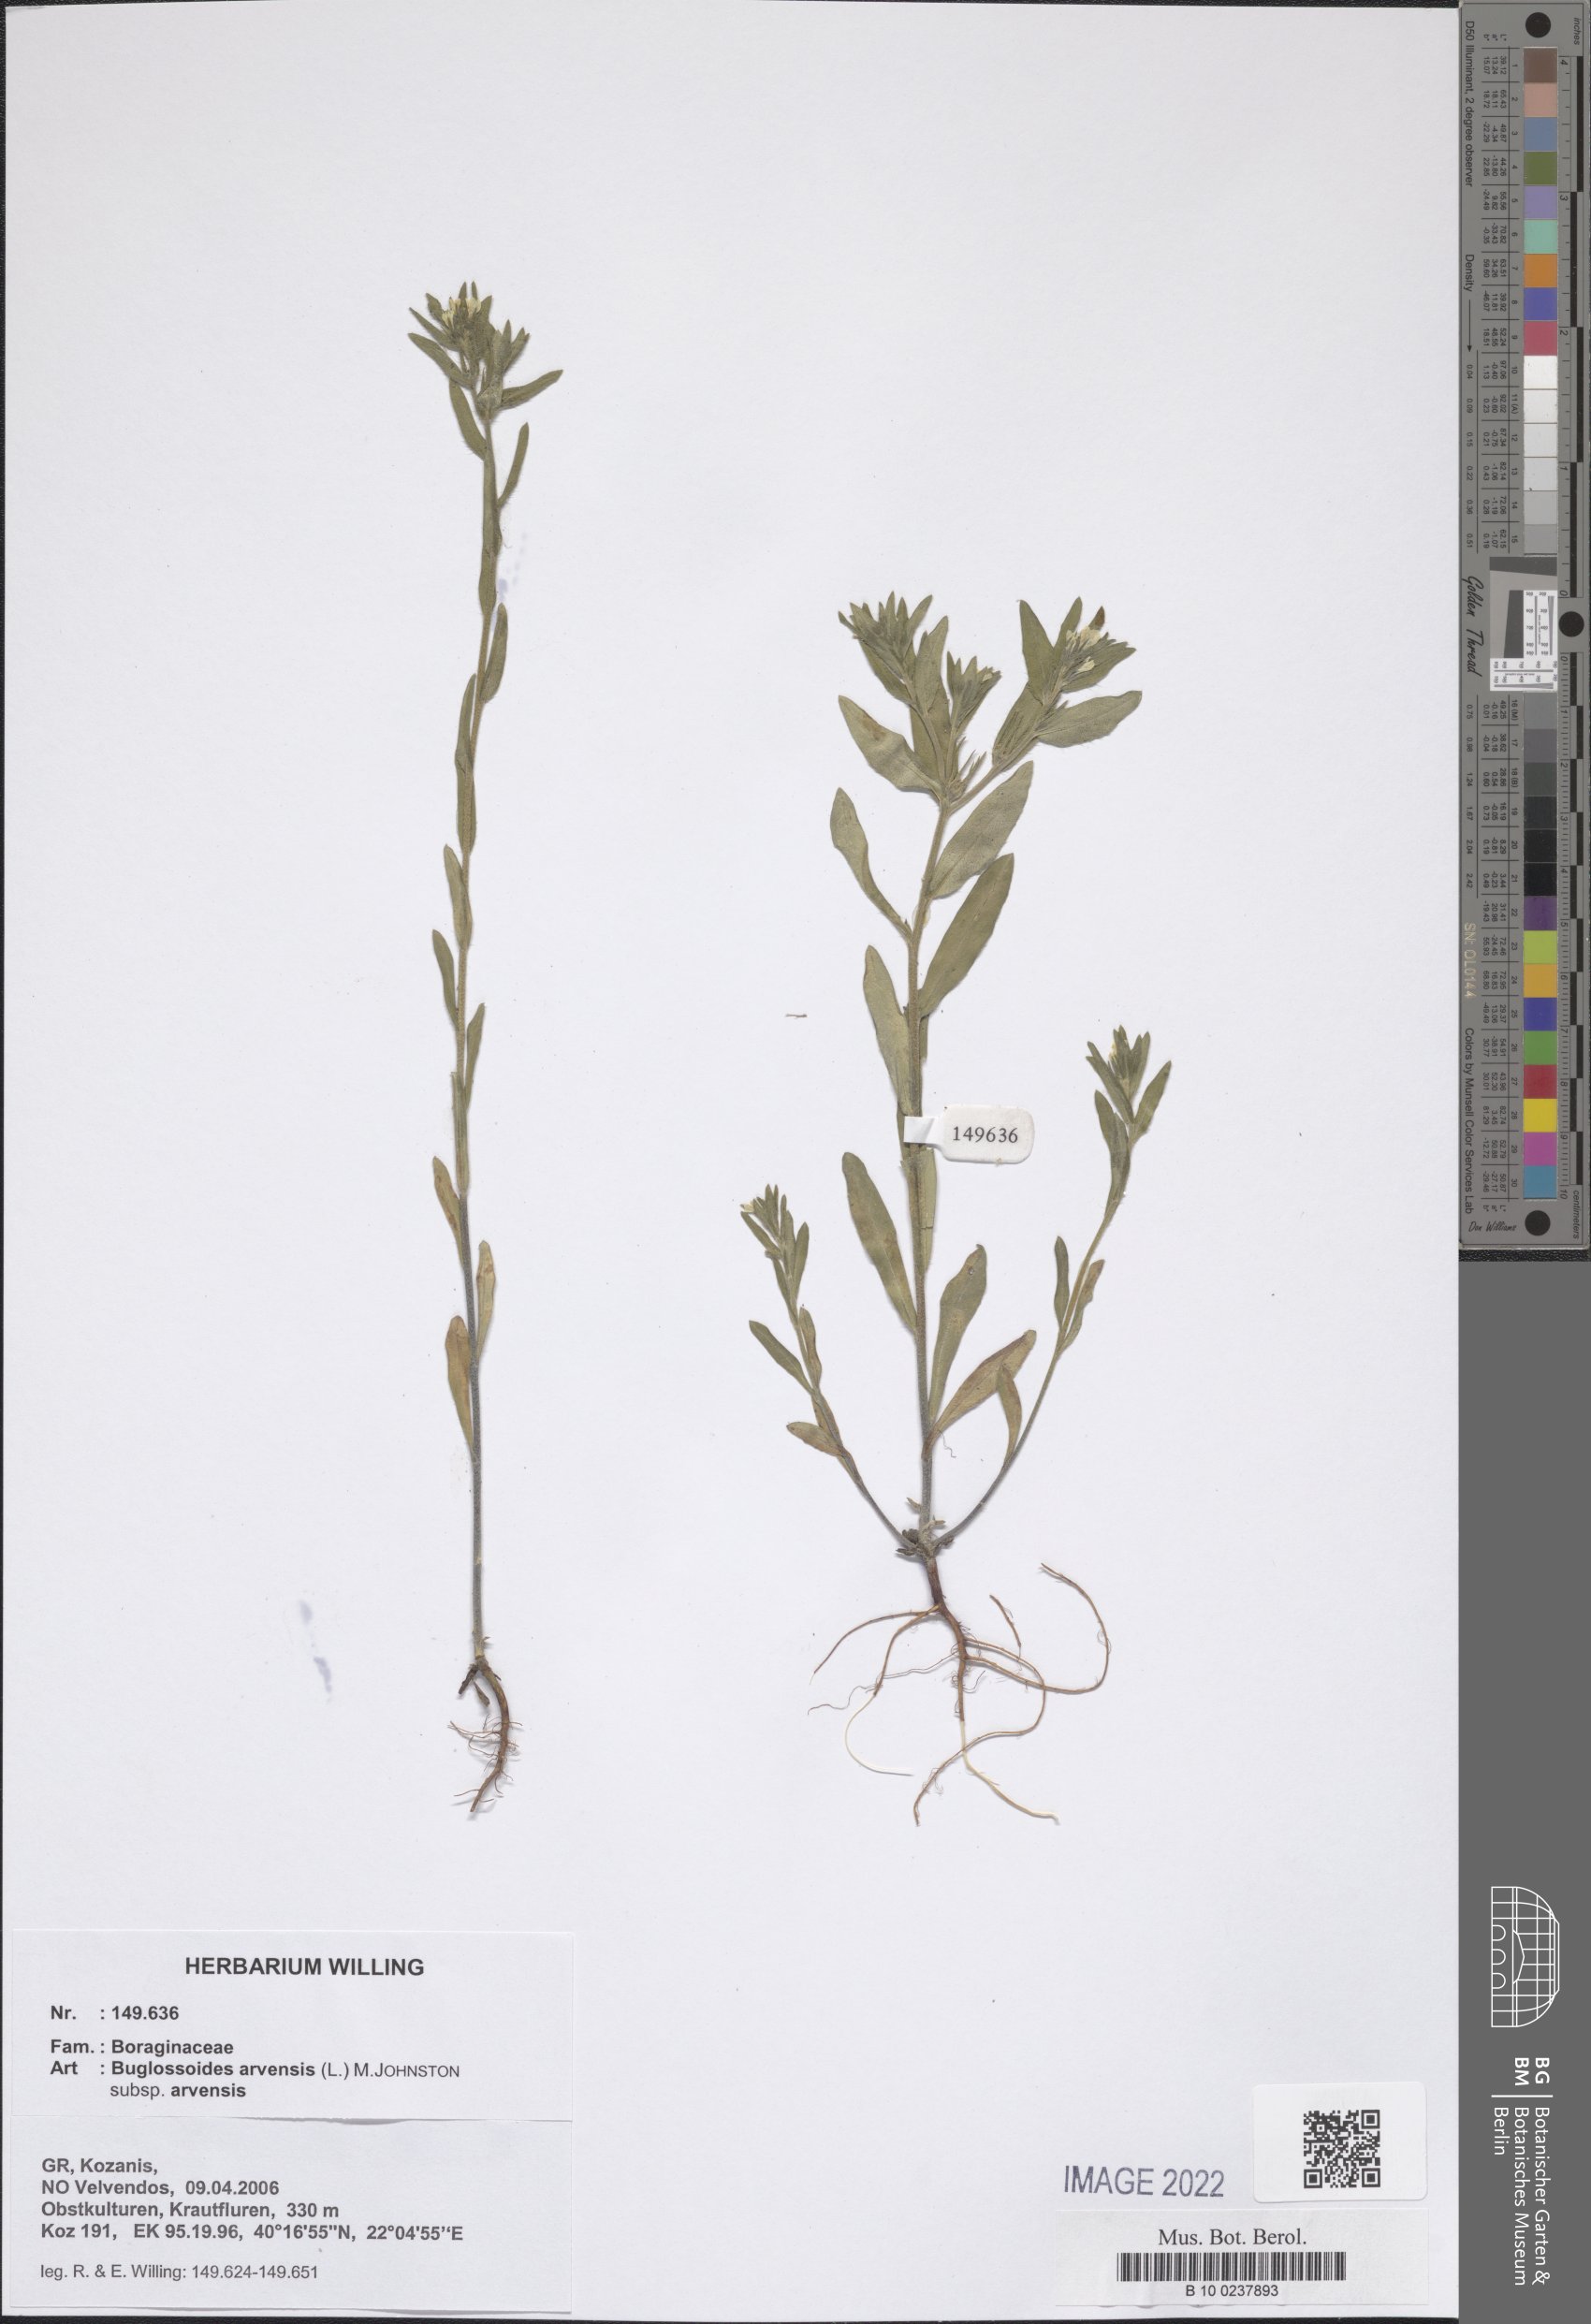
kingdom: Plantae
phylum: Tracheophyta
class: Magnoliopsida
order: Boraginales
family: Boraginaceae
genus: Buglossoides
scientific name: Buglossoides arvensis
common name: Corn gromwell
